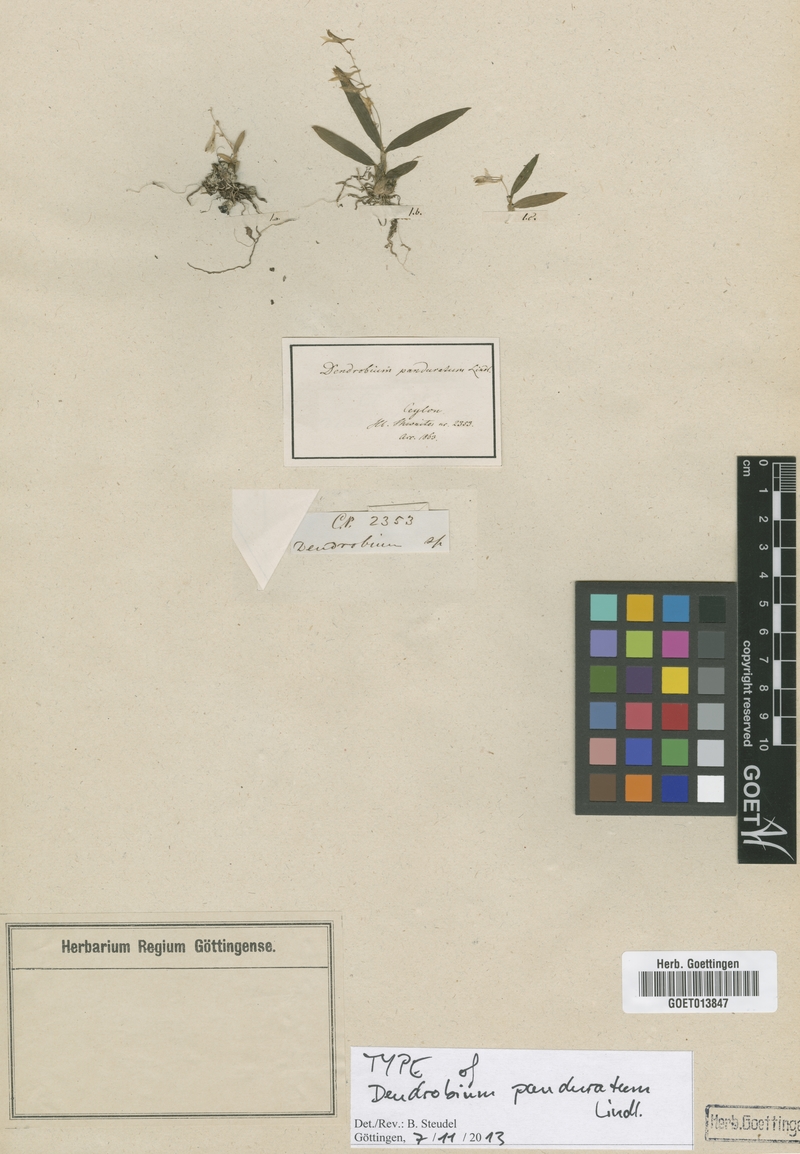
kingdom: Plantae
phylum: Tracheophyta
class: Liliopsida
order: Asparagales
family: Orchidaceae
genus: Dendrobium
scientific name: Dendrobium panduratum
